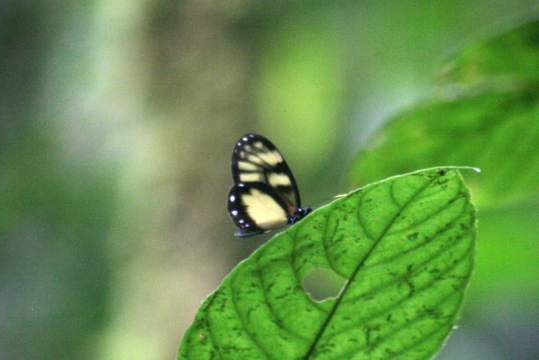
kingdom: Animalia
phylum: Arthropoda
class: Insecta
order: Lepidoptera
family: Nymphalidae
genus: Godyris
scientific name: Godyris zavaleta
